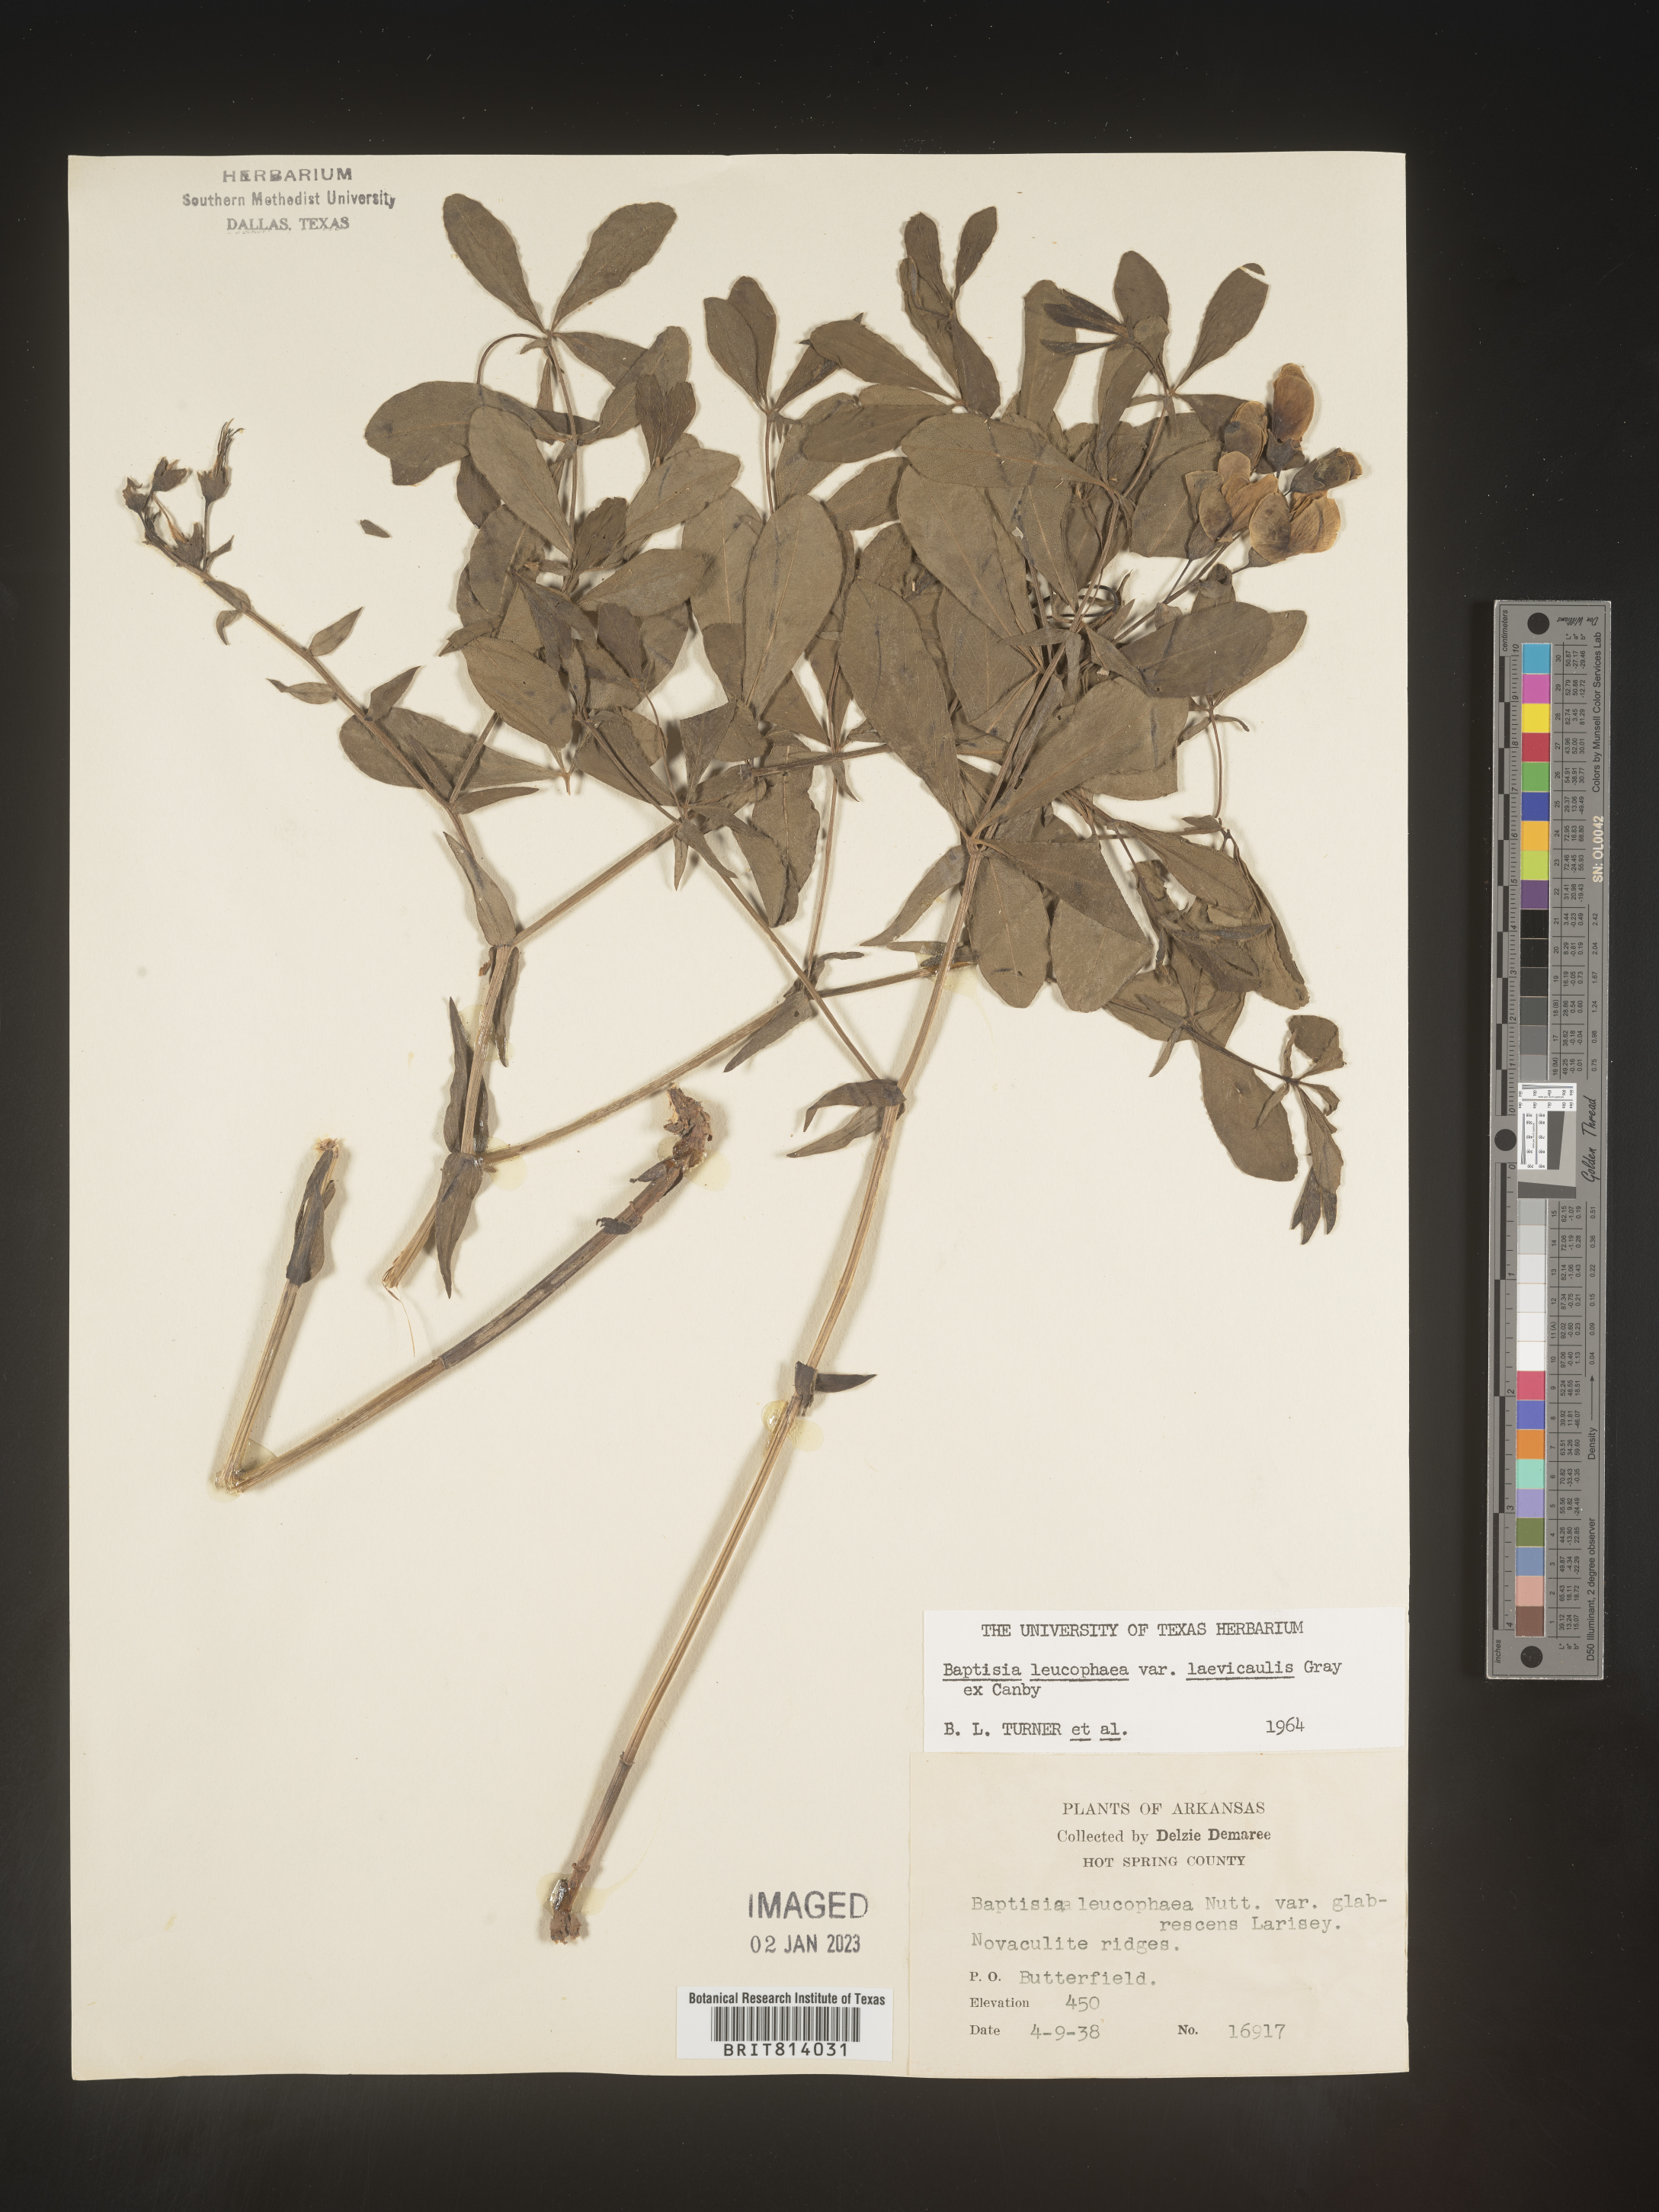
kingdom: Plantae
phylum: Tracheophyta
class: Magnoliopsida
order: Fabales
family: Fabaceae
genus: Baptisia
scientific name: Baptisia bracteata
